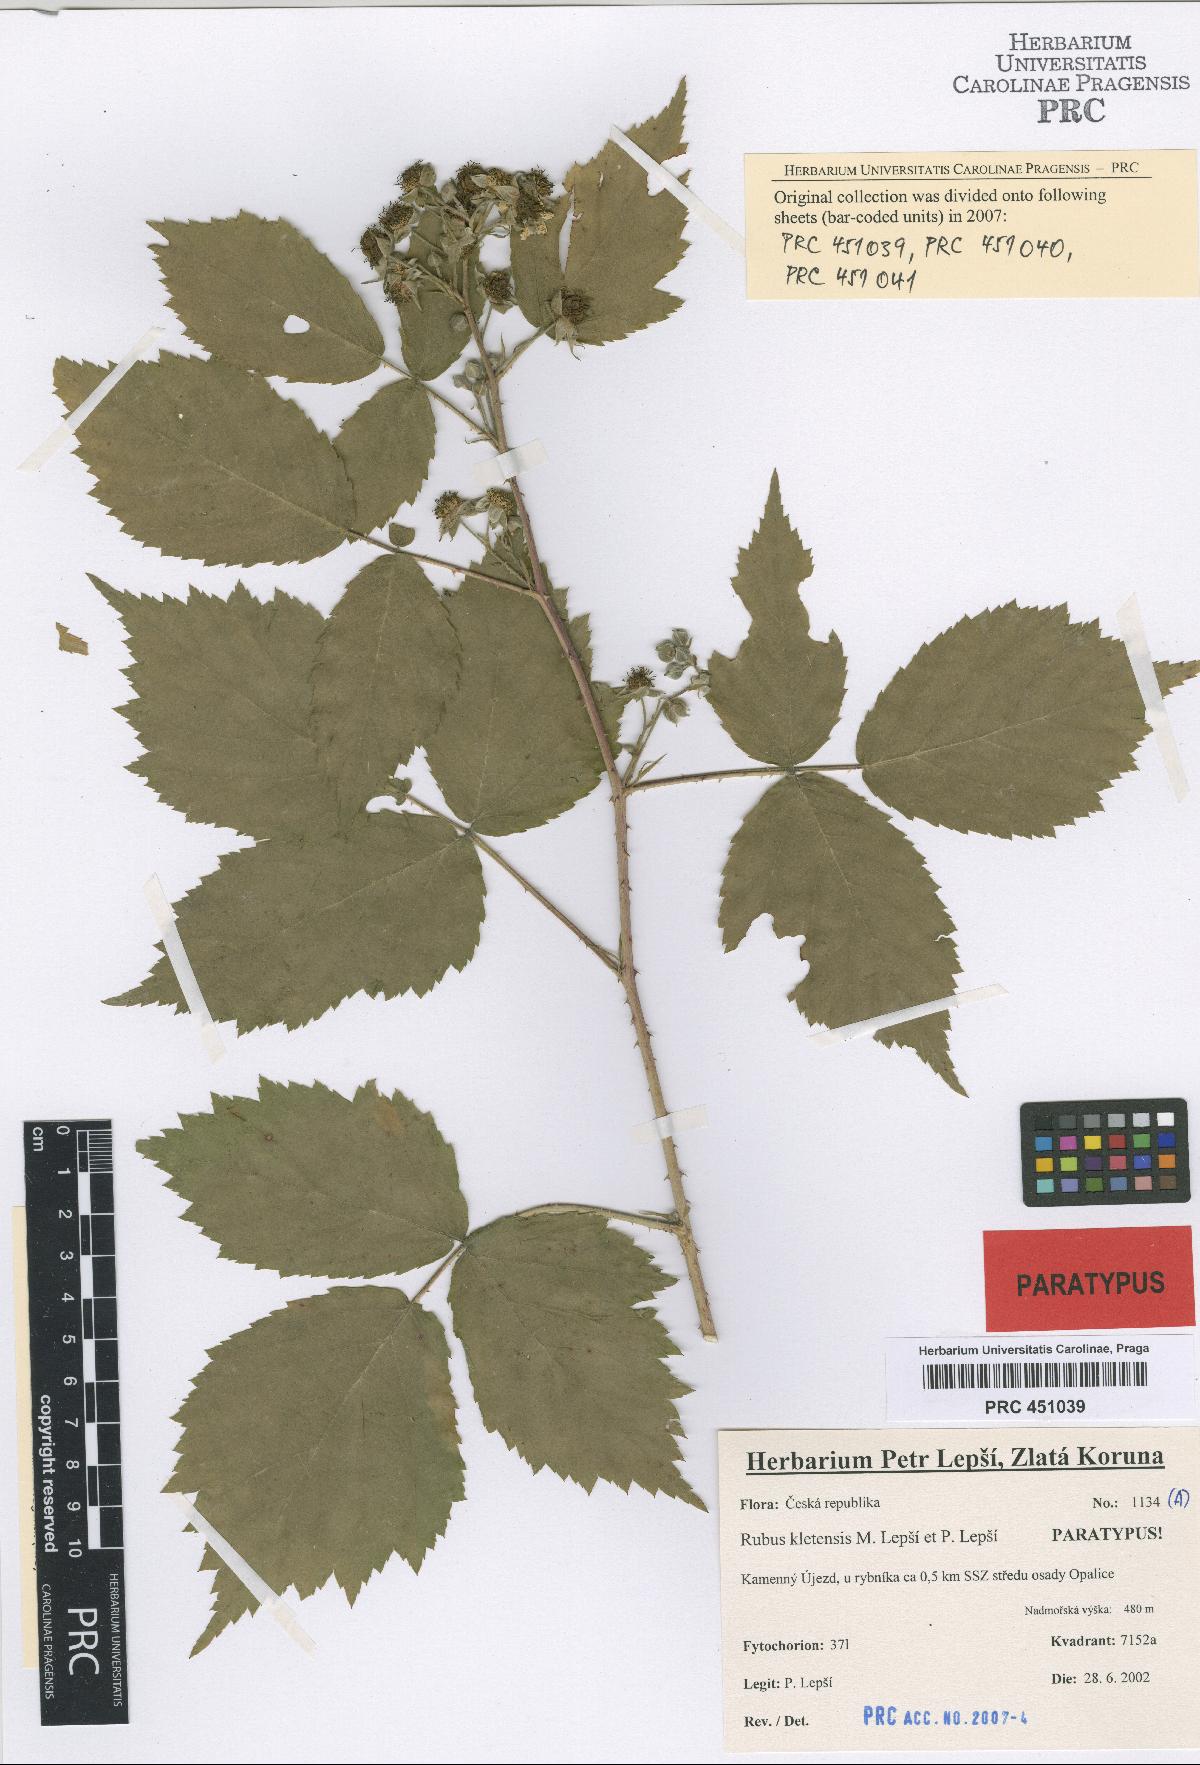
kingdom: Plantae
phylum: Tracheophyta
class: Magnoliopsida
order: Rosales
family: Rosaceae
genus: Rubus
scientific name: Rubus kletensis
